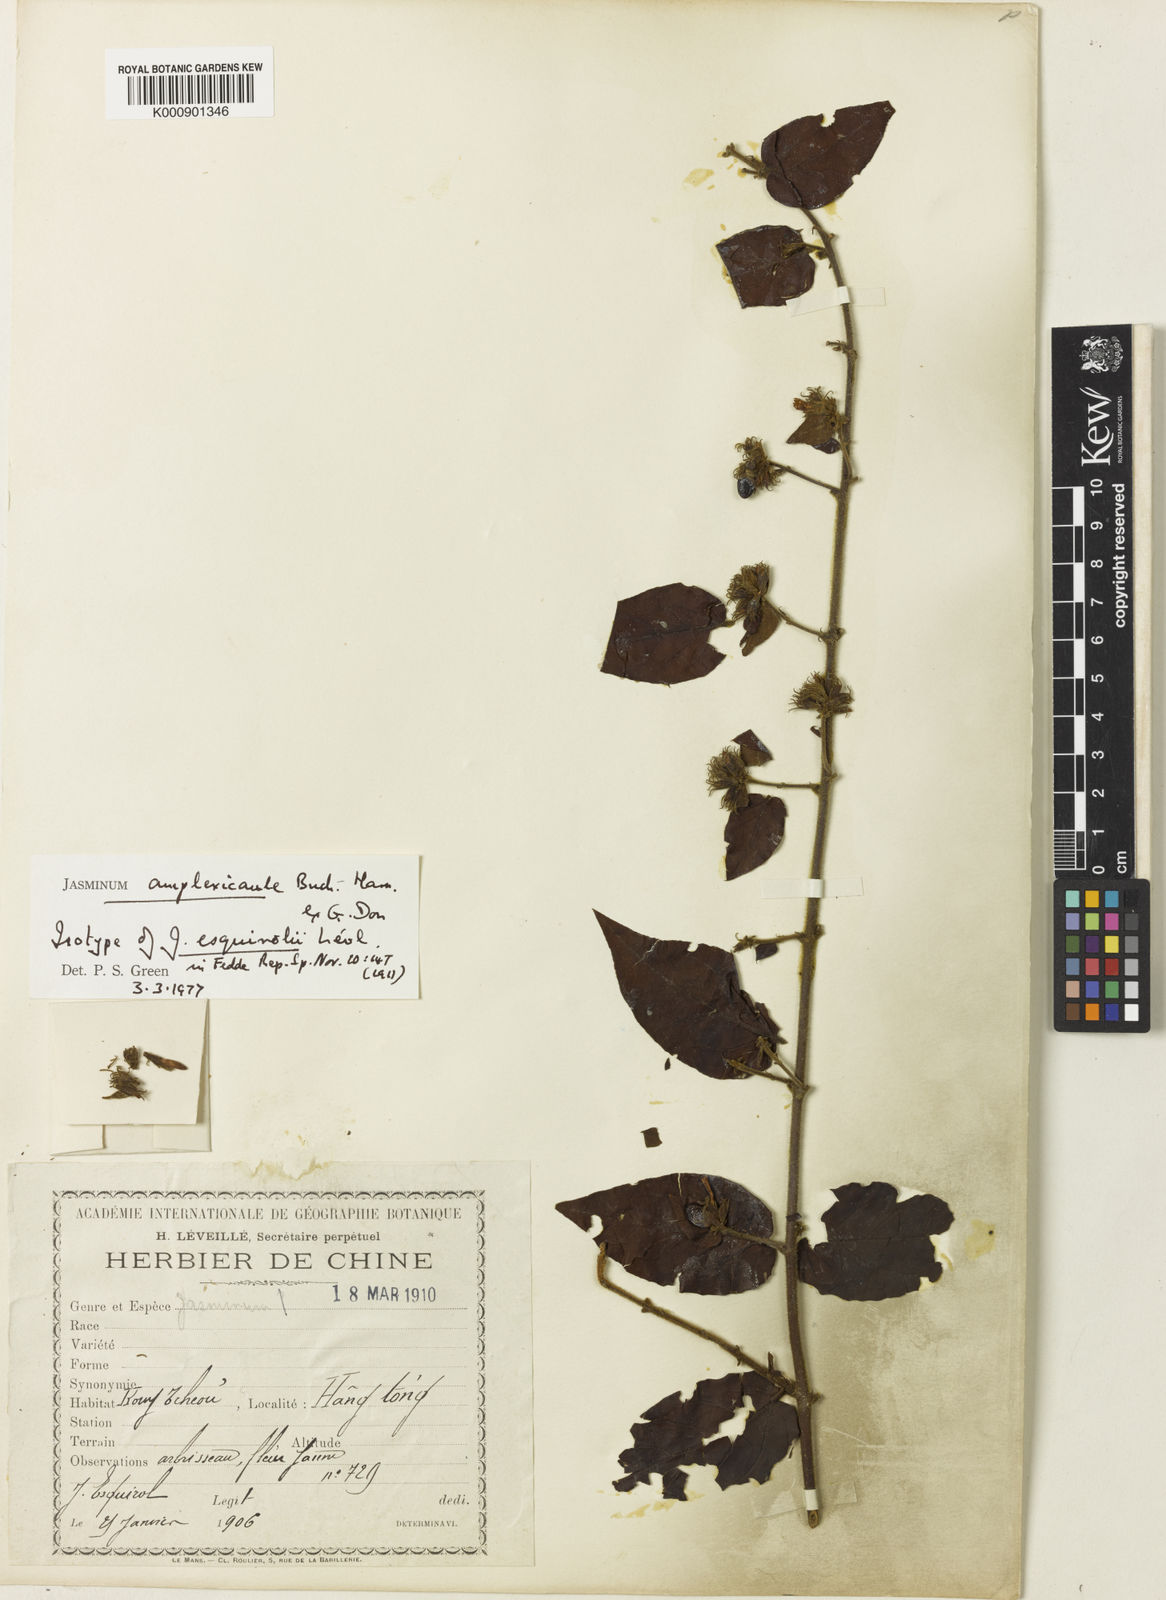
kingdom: Plantae
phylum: Tracheophyta
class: Magnoliopsida
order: Lamiales
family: Oleaceae
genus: Jasminum
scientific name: Jasminum elongatum
